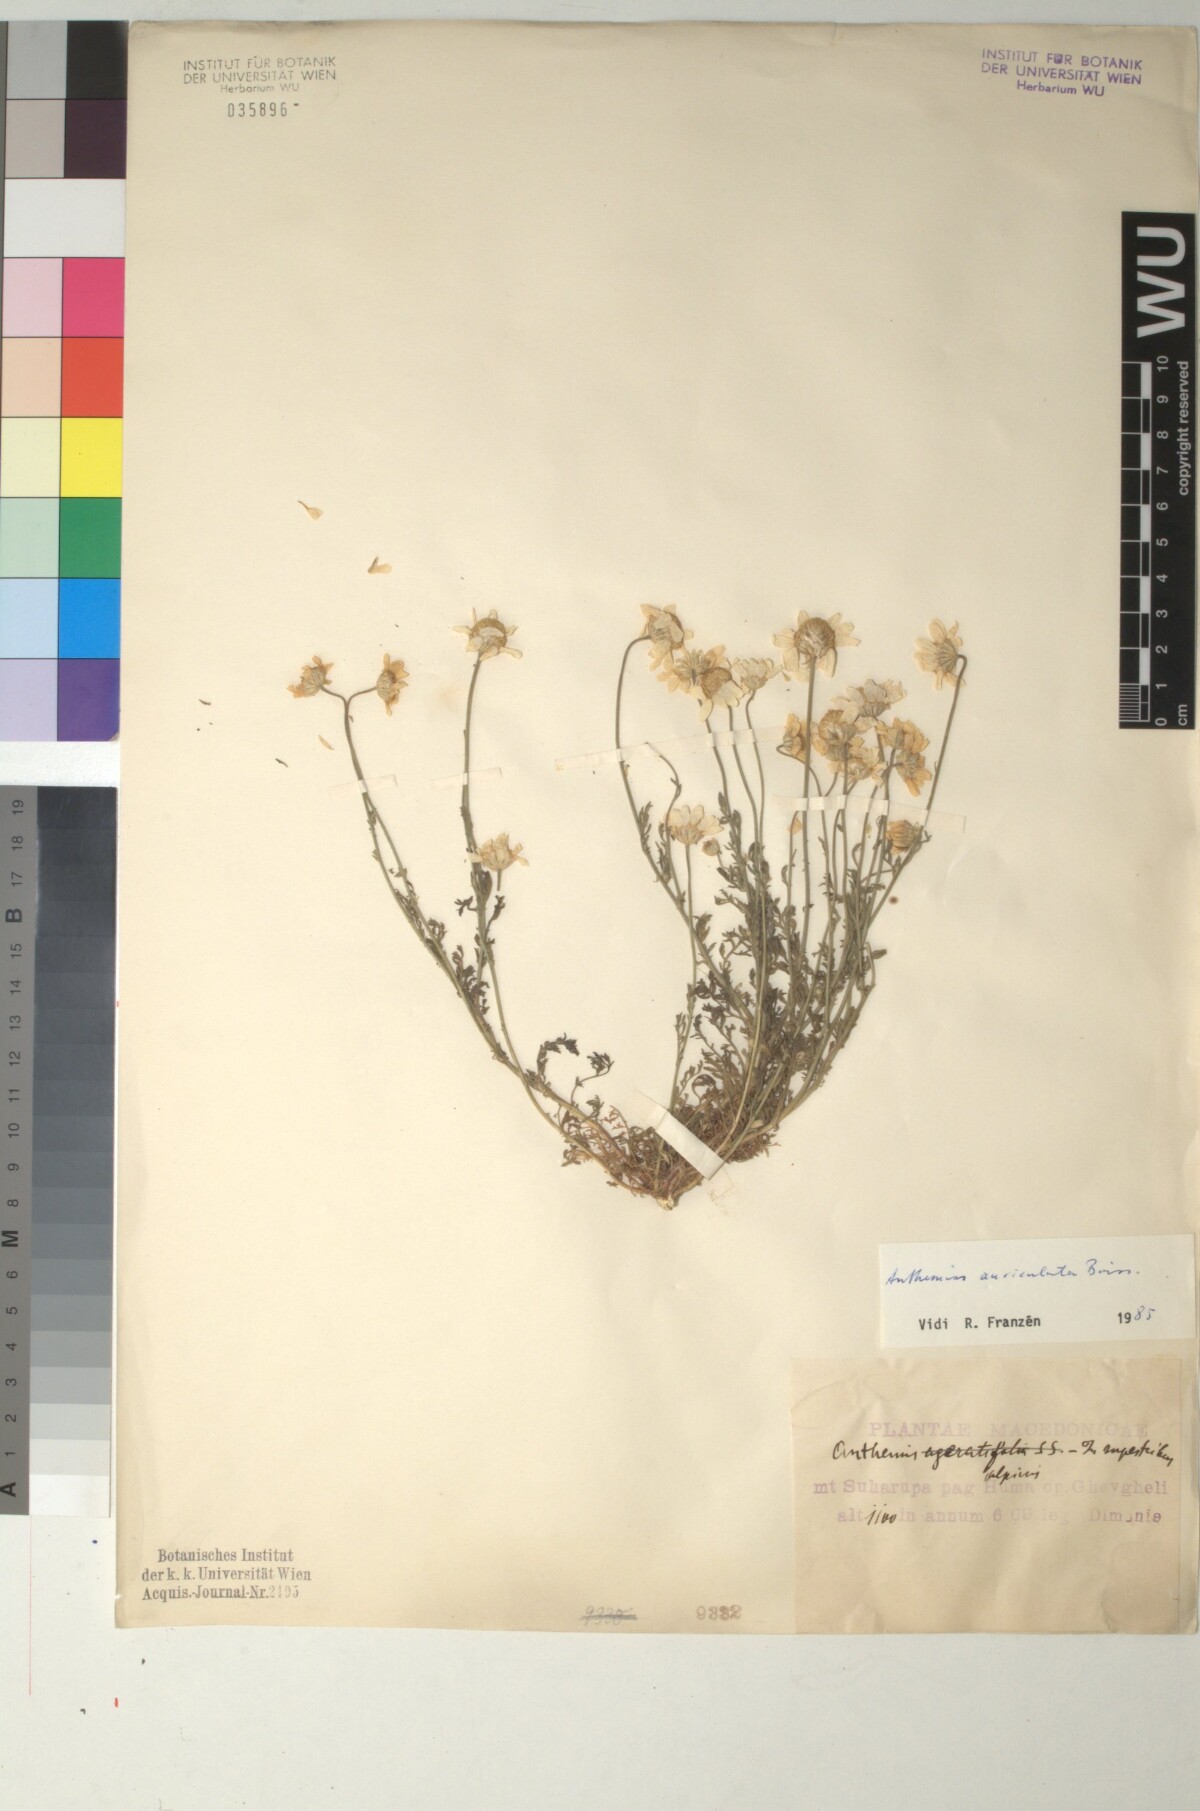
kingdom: Plantae
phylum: Tracheophyta
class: Magnoliopsida
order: Asterales
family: Asteraceae
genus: Anthemis
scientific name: Anthemis auriculata
